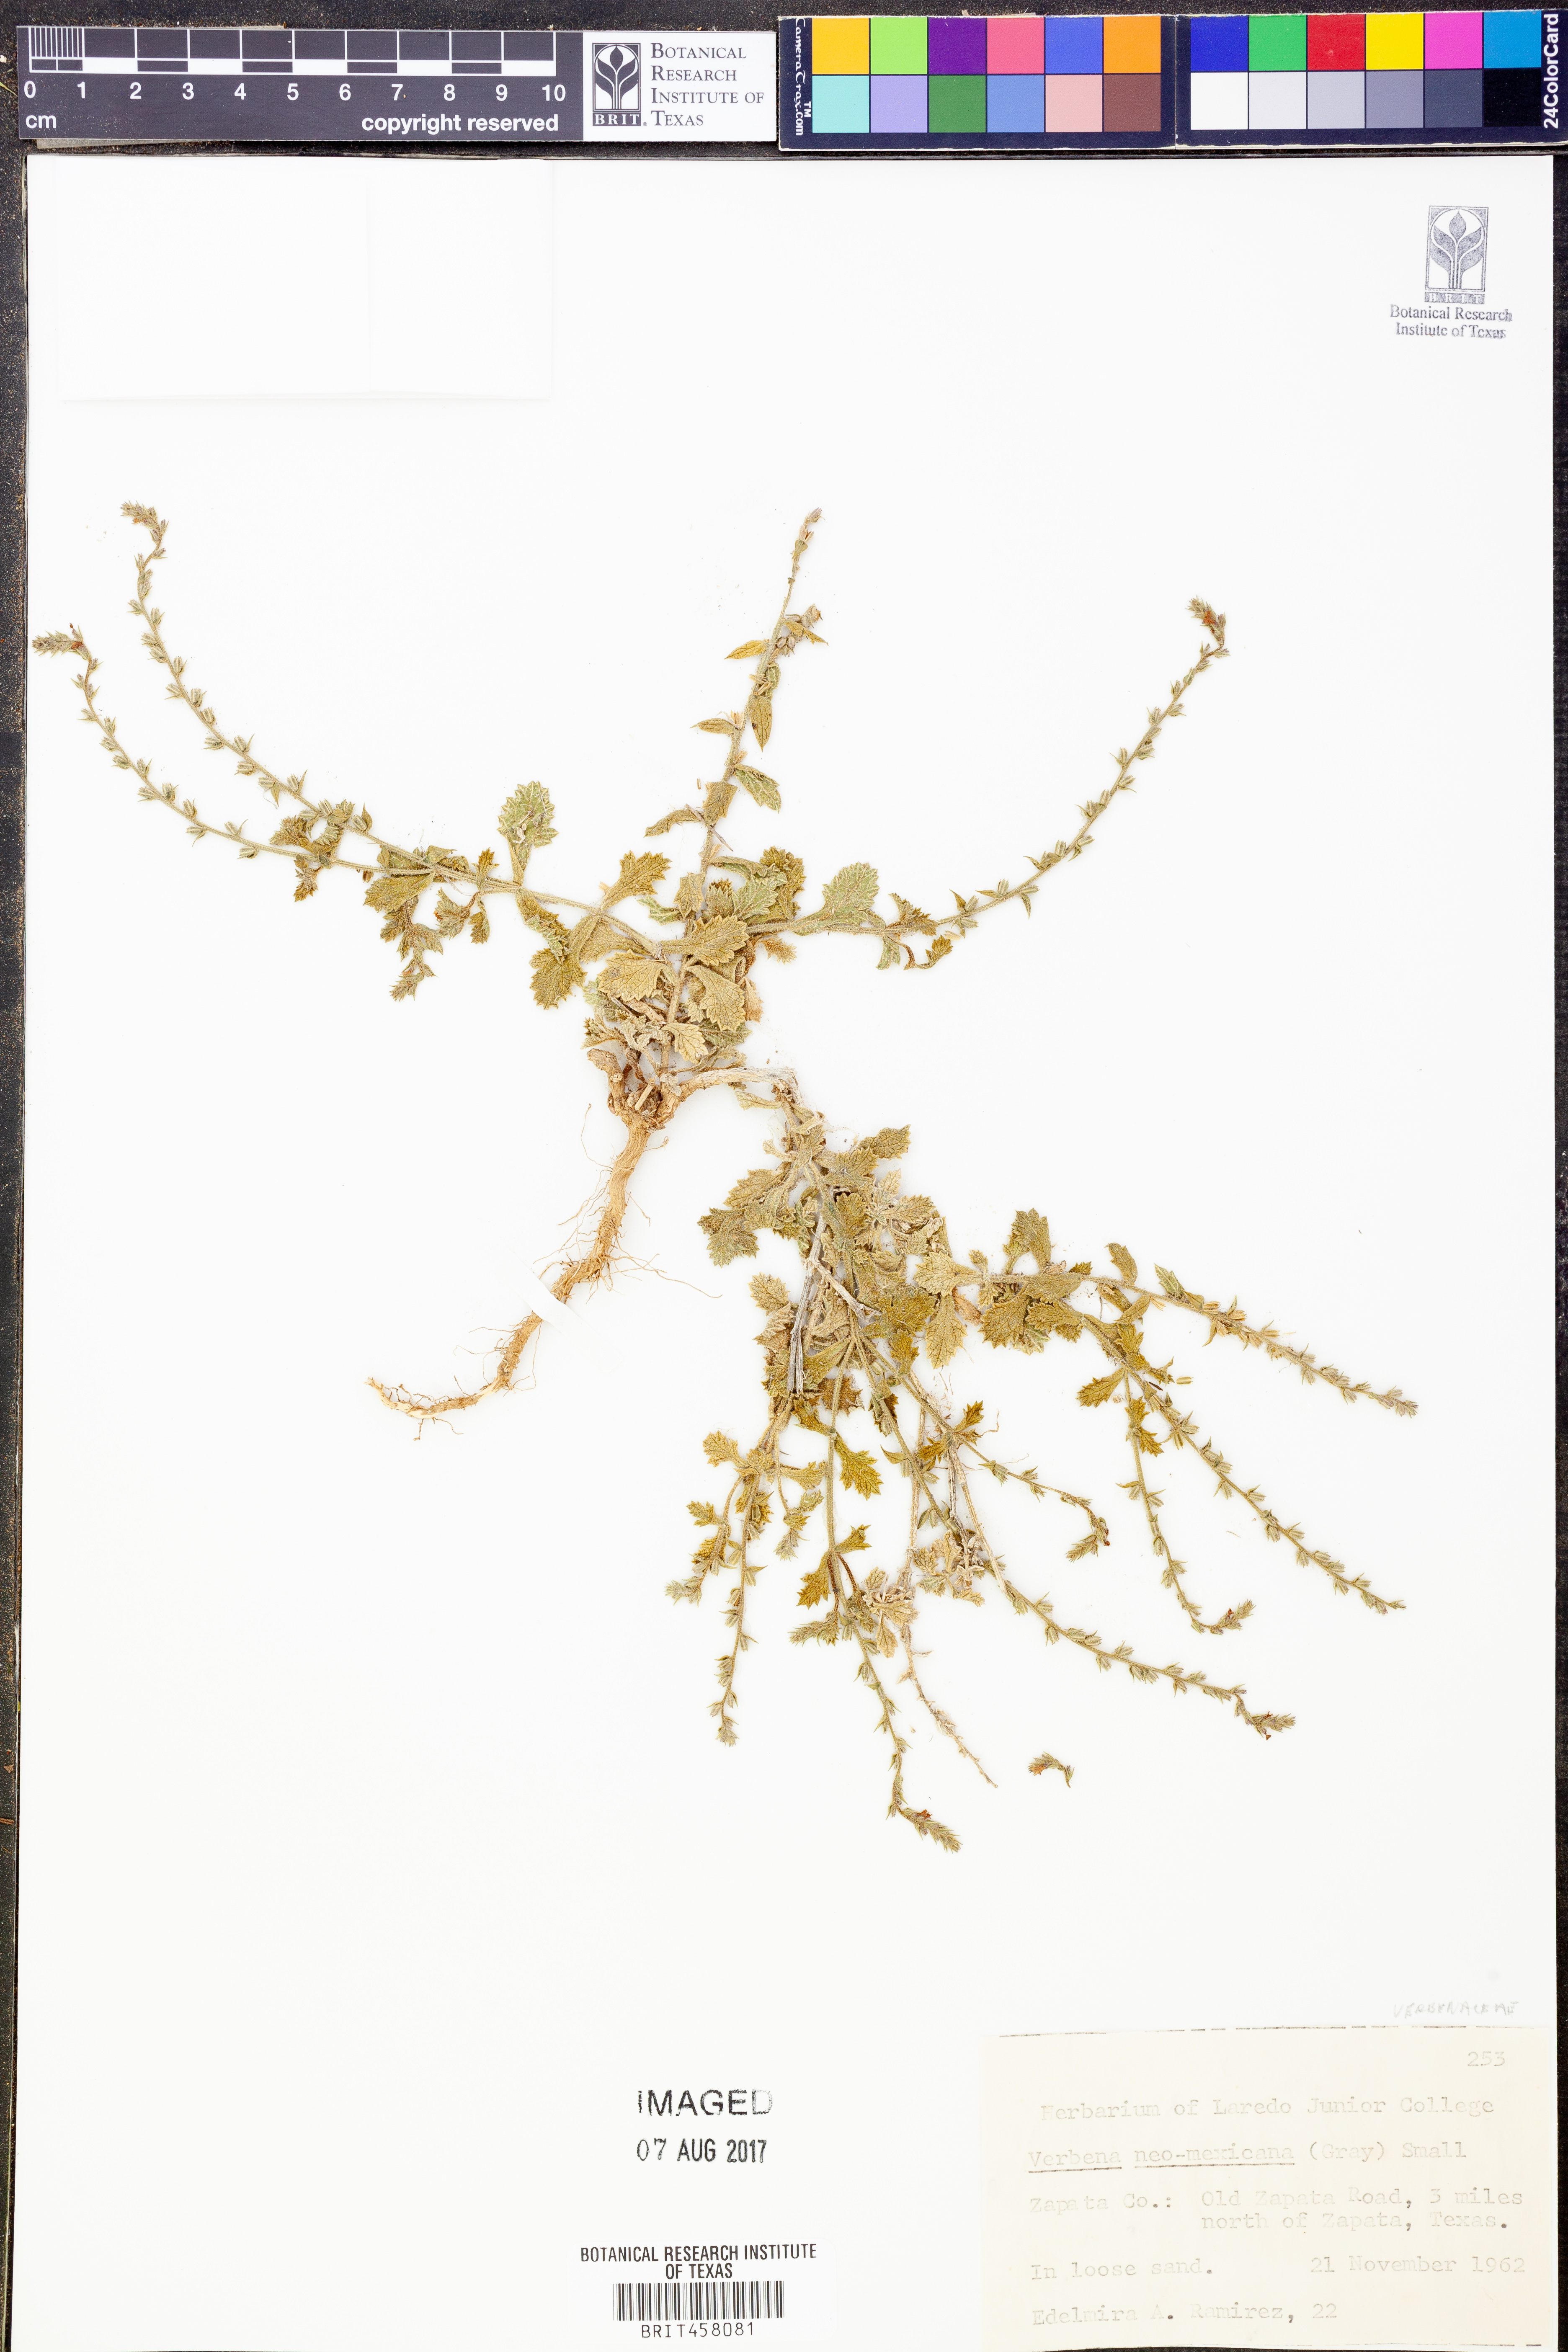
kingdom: Plantae
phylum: Tracheophyta
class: Magnoliopsida
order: Lamiales
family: Verbenaceae
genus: Verbena
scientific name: Verbena neomexicana
